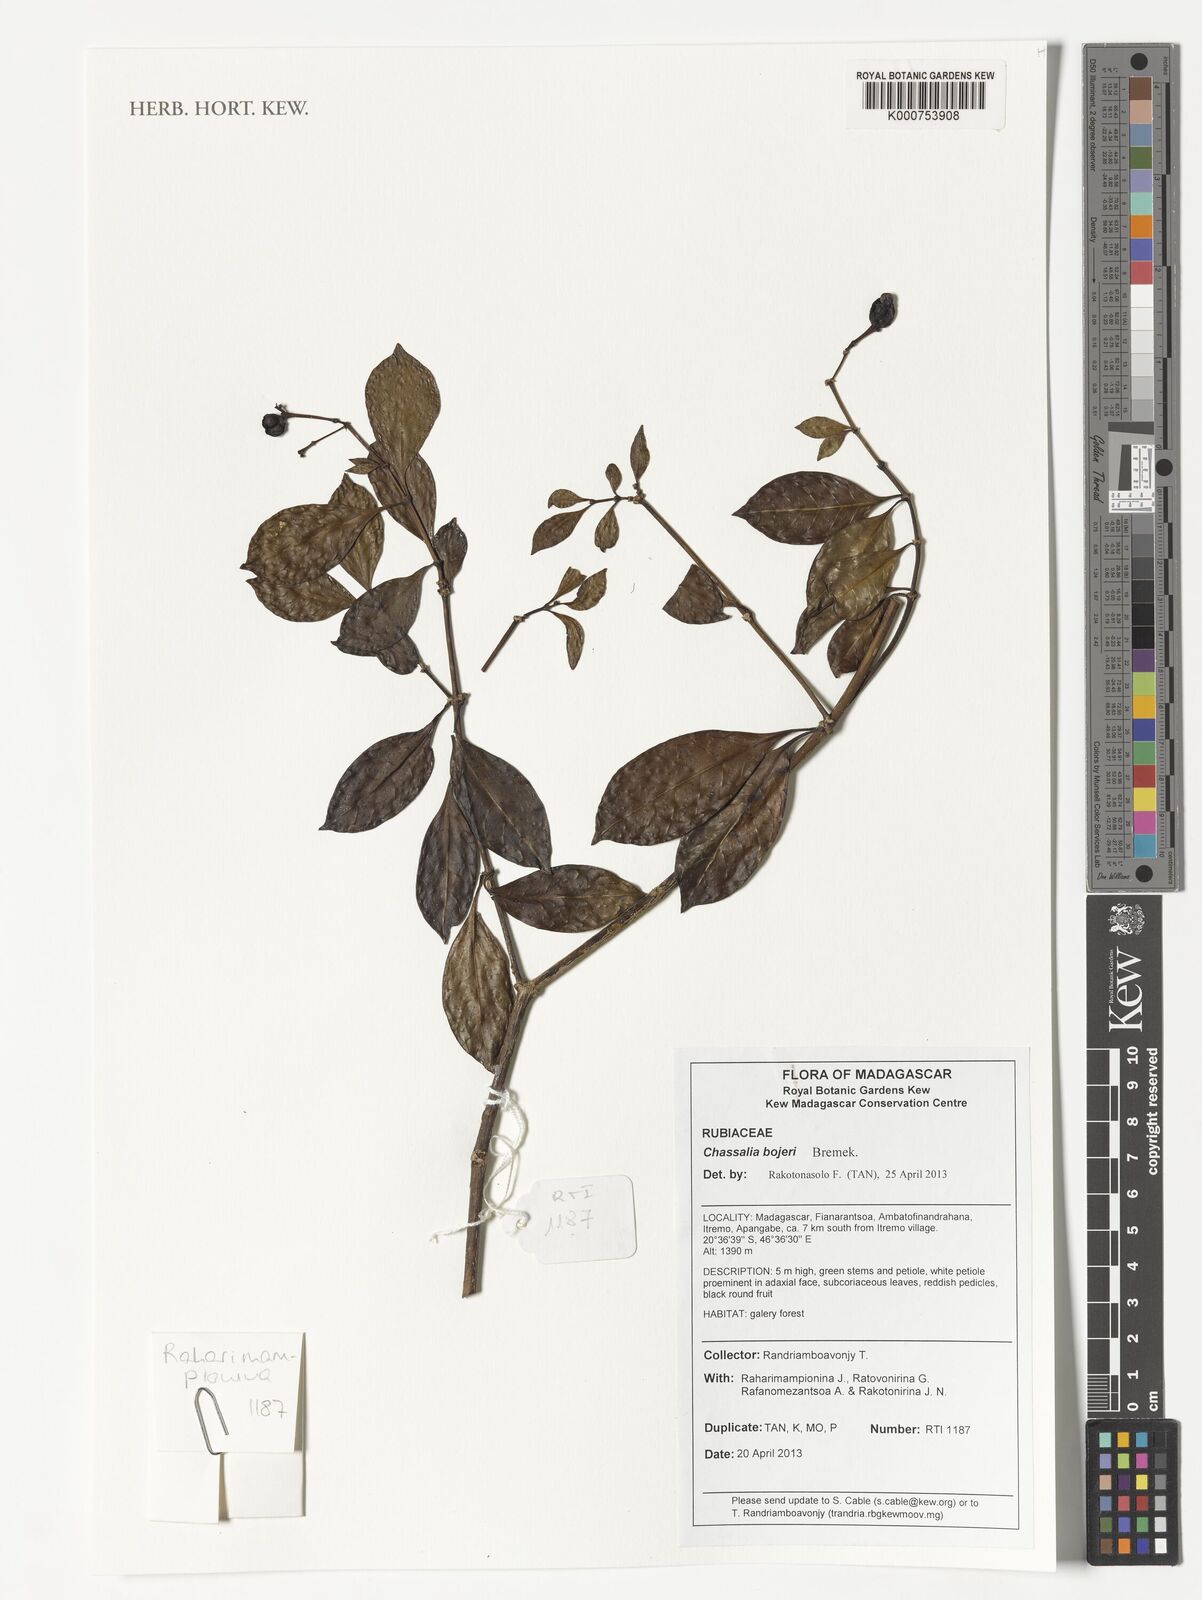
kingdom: Plantae
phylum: Tracheophyta
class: Magnoliopsida
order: Gentianales
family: Rubiaceae
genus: Chassalia
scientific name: Chassalia bojeri
